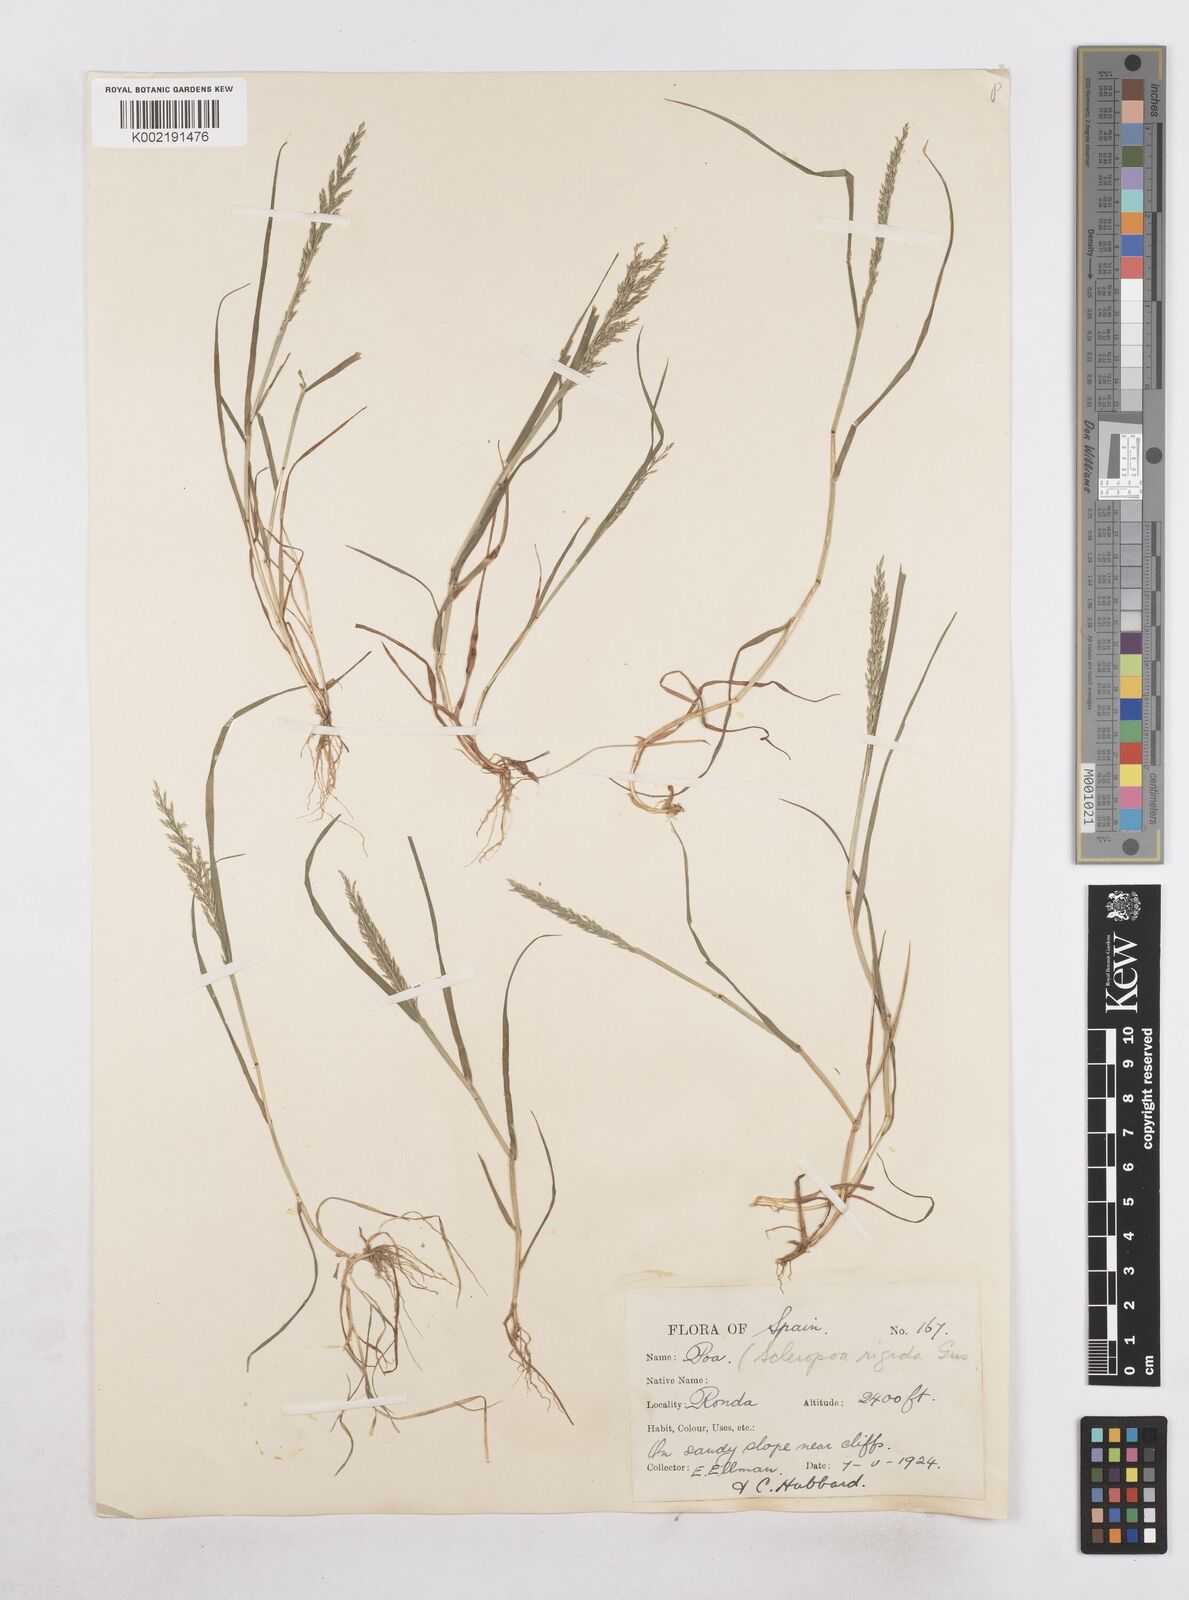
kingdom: Plantae
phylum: Tracheophyta
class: Liliopsida
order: Poales
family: Poaceae
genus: Catapodium
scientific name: Catapodium rigidum
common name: Fern-grass
